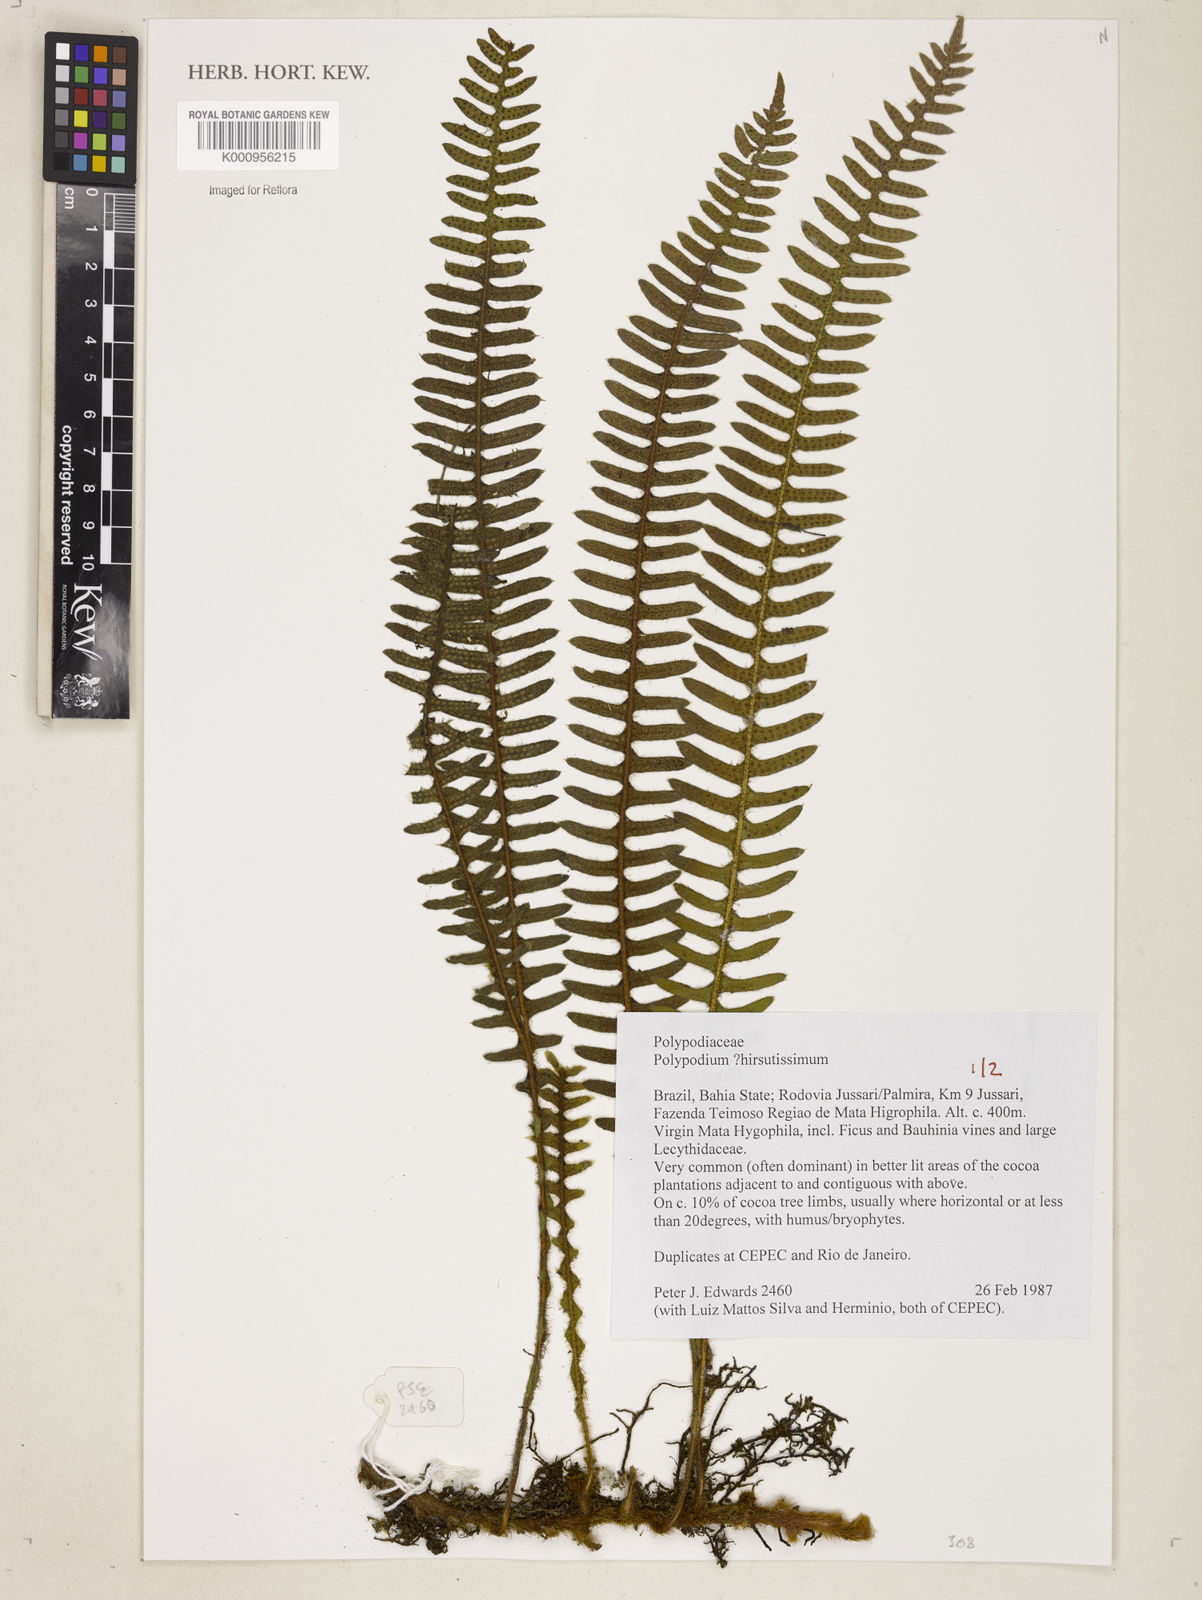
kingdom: Plantae
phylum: Tracheophyta
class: Polypodiopsida
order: Polypodiales
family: Polypodiaceae
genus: Pleopeltis
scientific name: Pleopeltis hirsutissima
